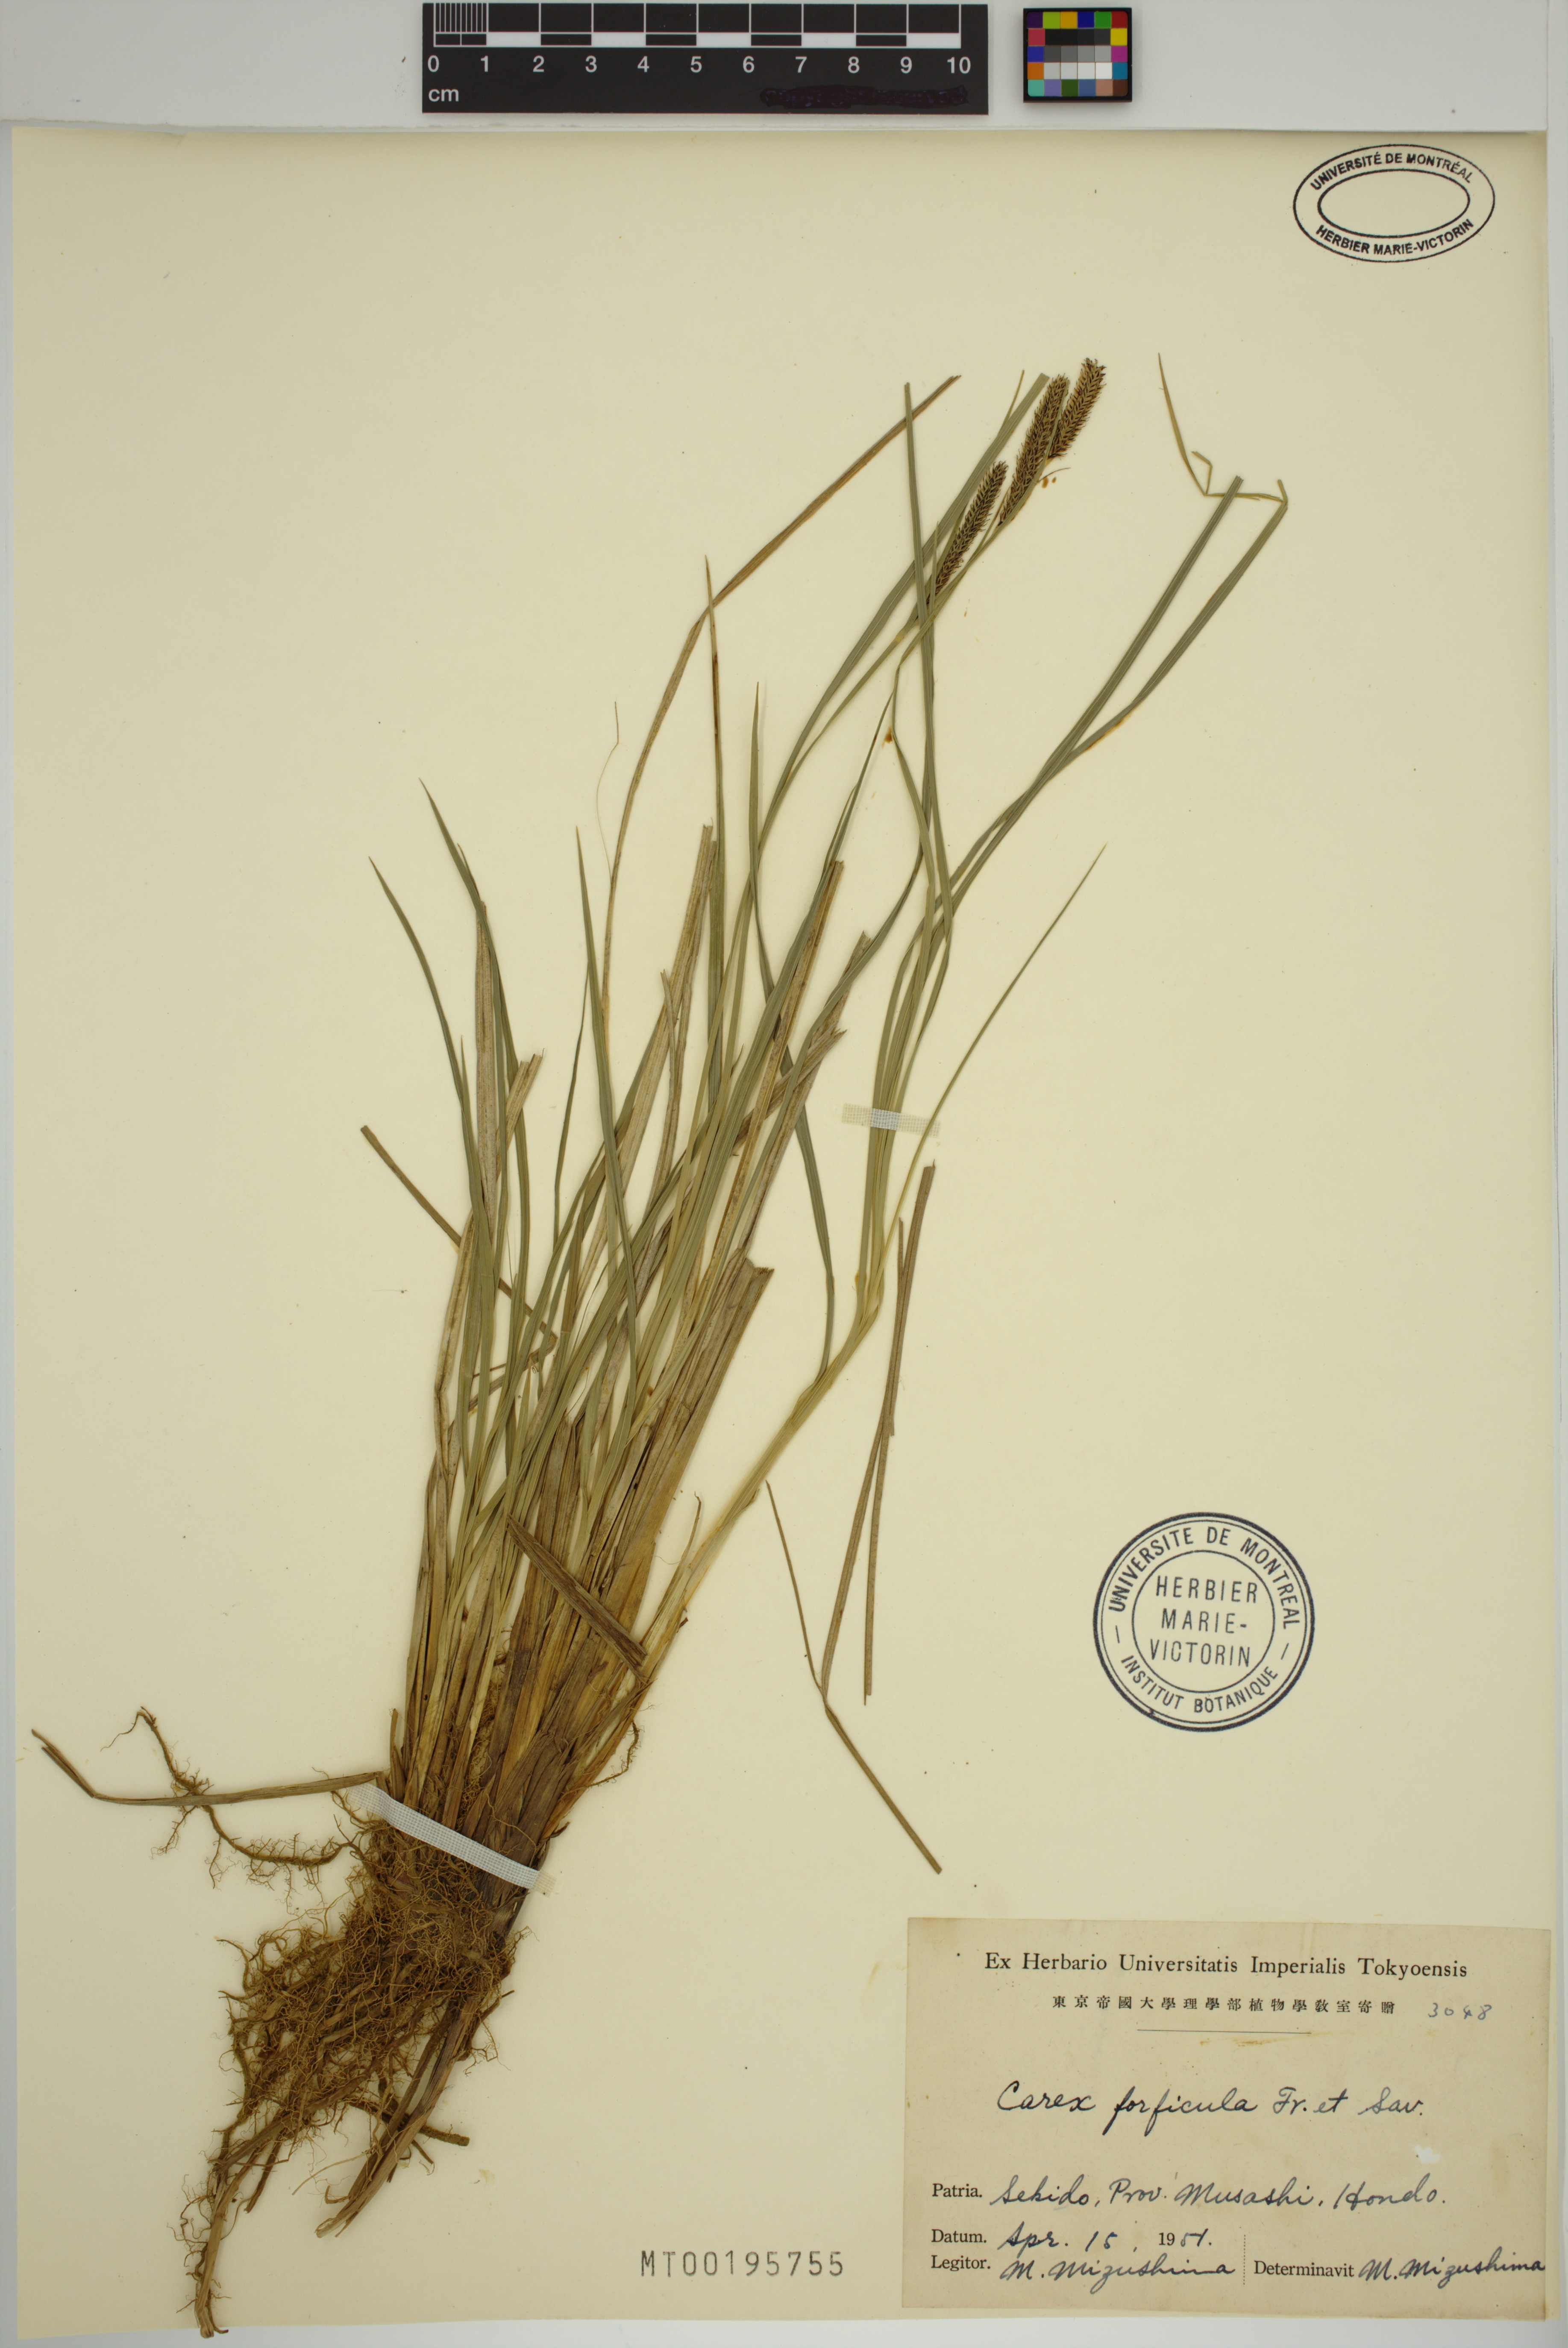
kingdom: Plantae
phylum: Tracheophyta
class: Liliopsida
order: Poales
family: Cyperaceae
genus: Carex
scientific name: Carex forficula
